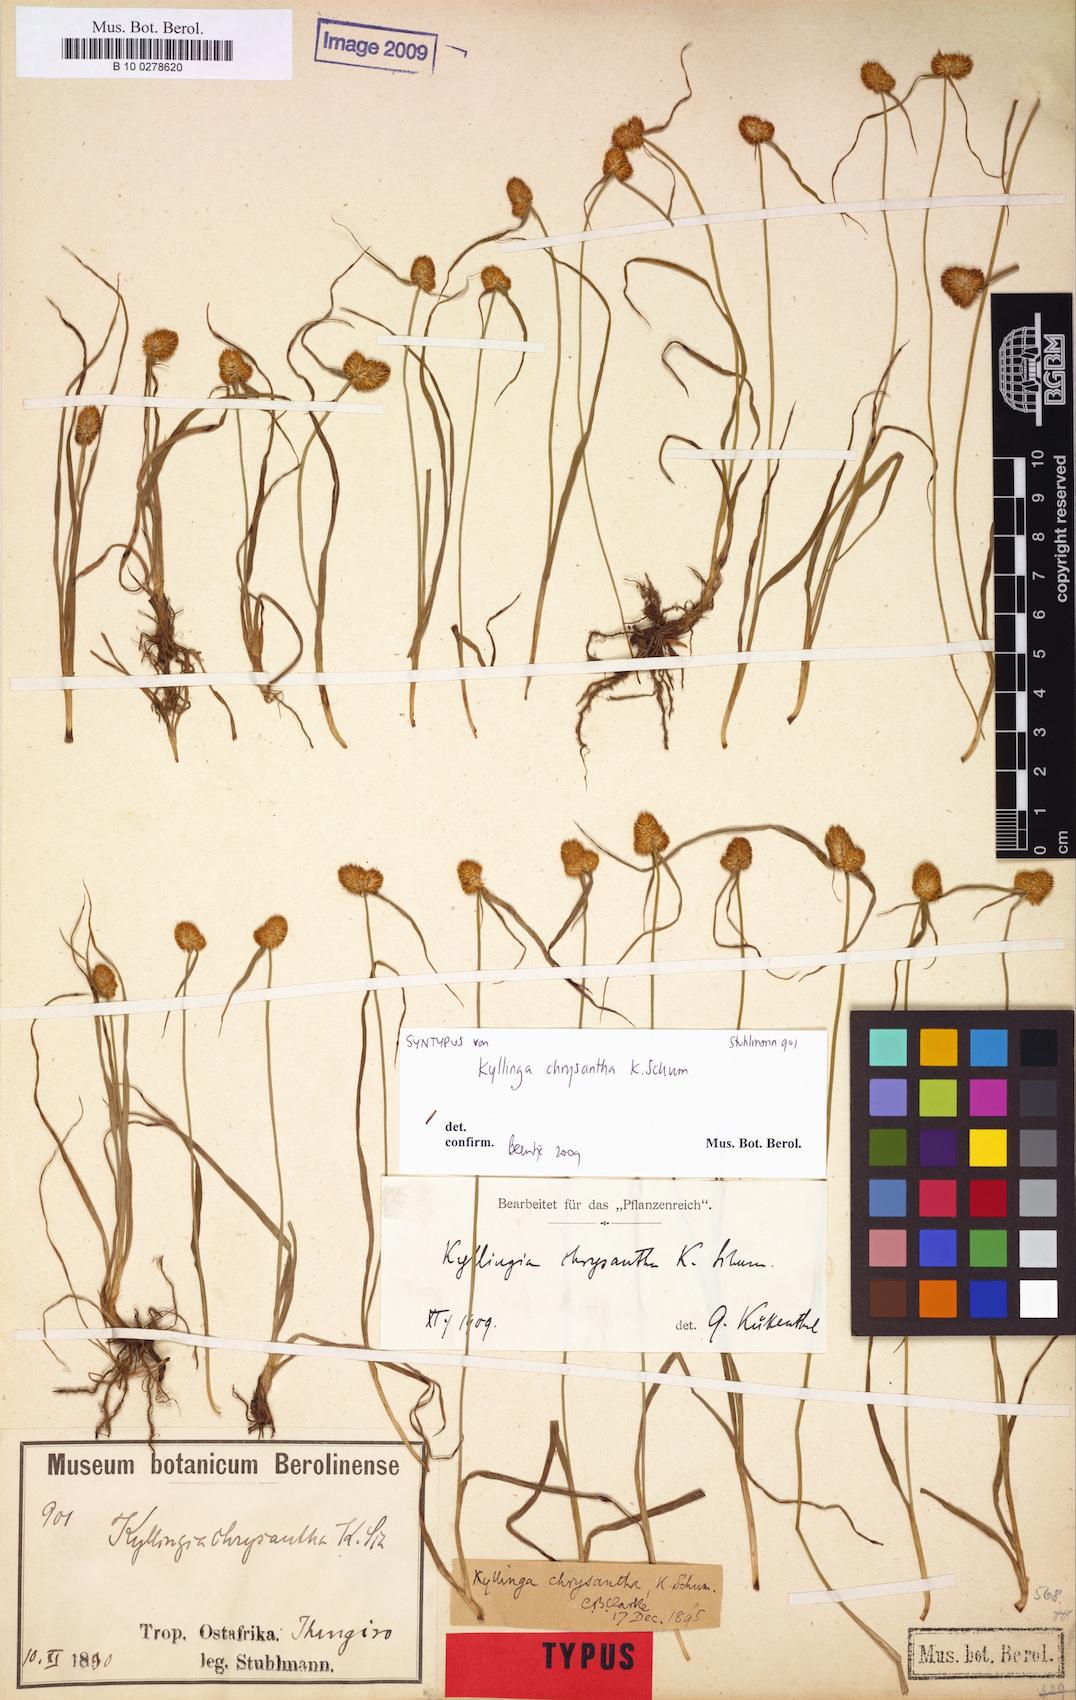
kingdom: Plantae
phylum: Tracheophyta
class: Liliopsida
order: Poales
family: Cyperaceae
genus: Cyperus
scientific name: Cyperus aureostramineus
